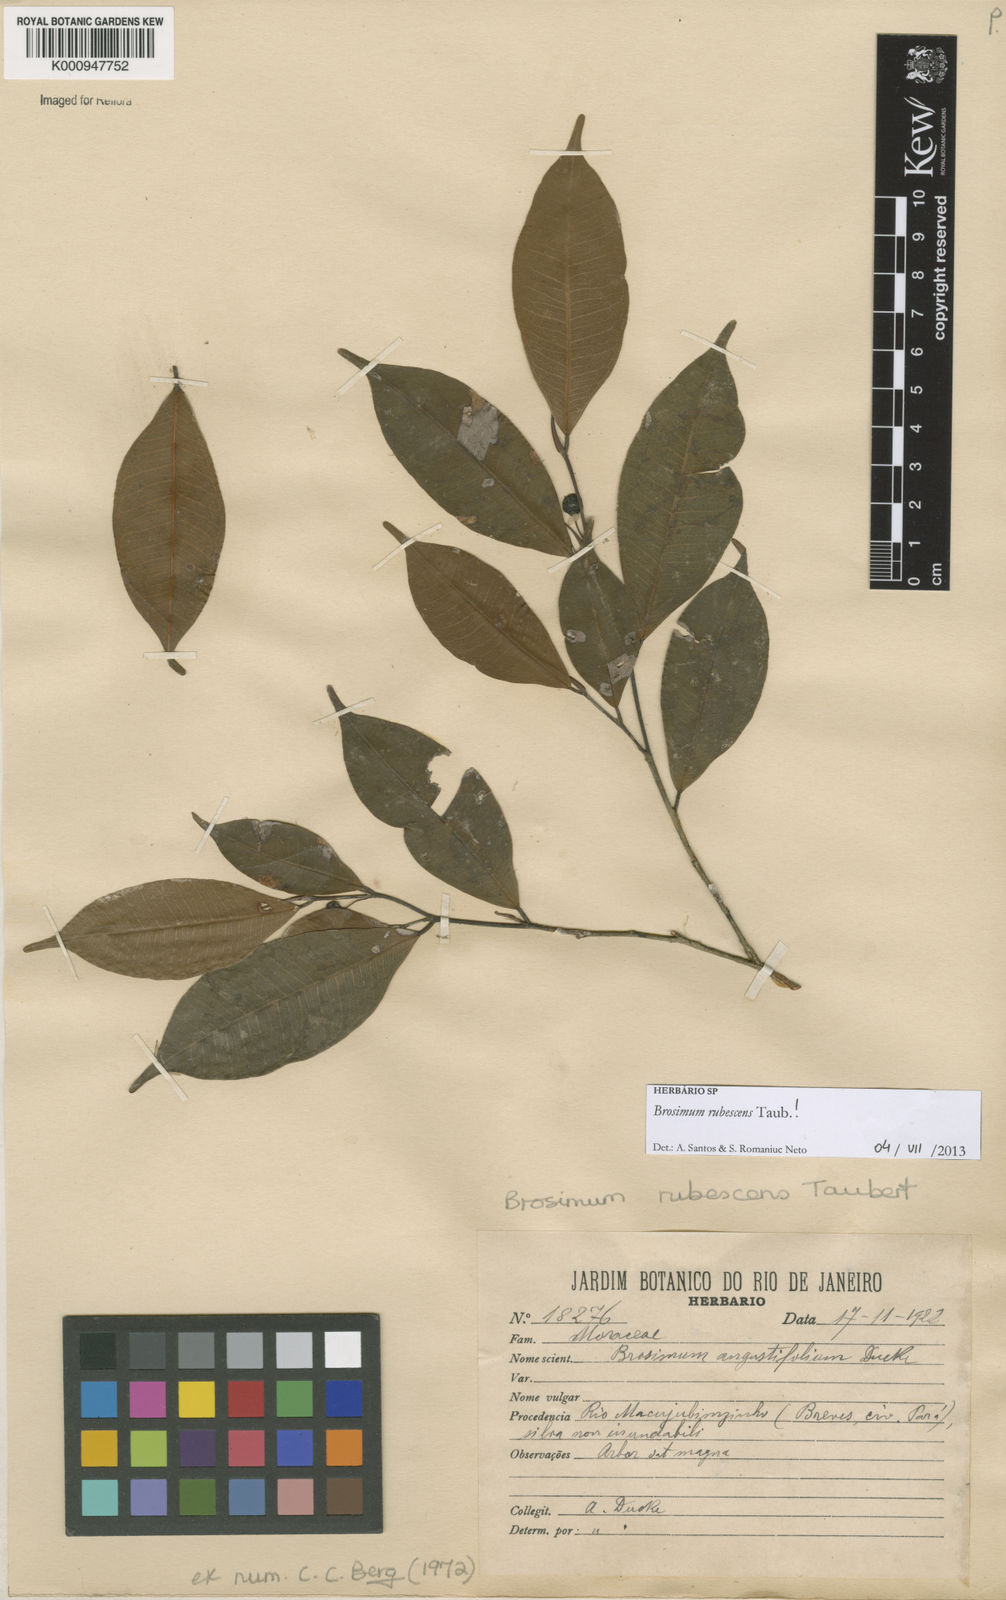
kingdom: Plantae
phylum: Tracheophyta
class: Magnoliopsida
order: Rosales
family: Moraceae
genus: Brosimum
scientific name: Brosimum rubescens
